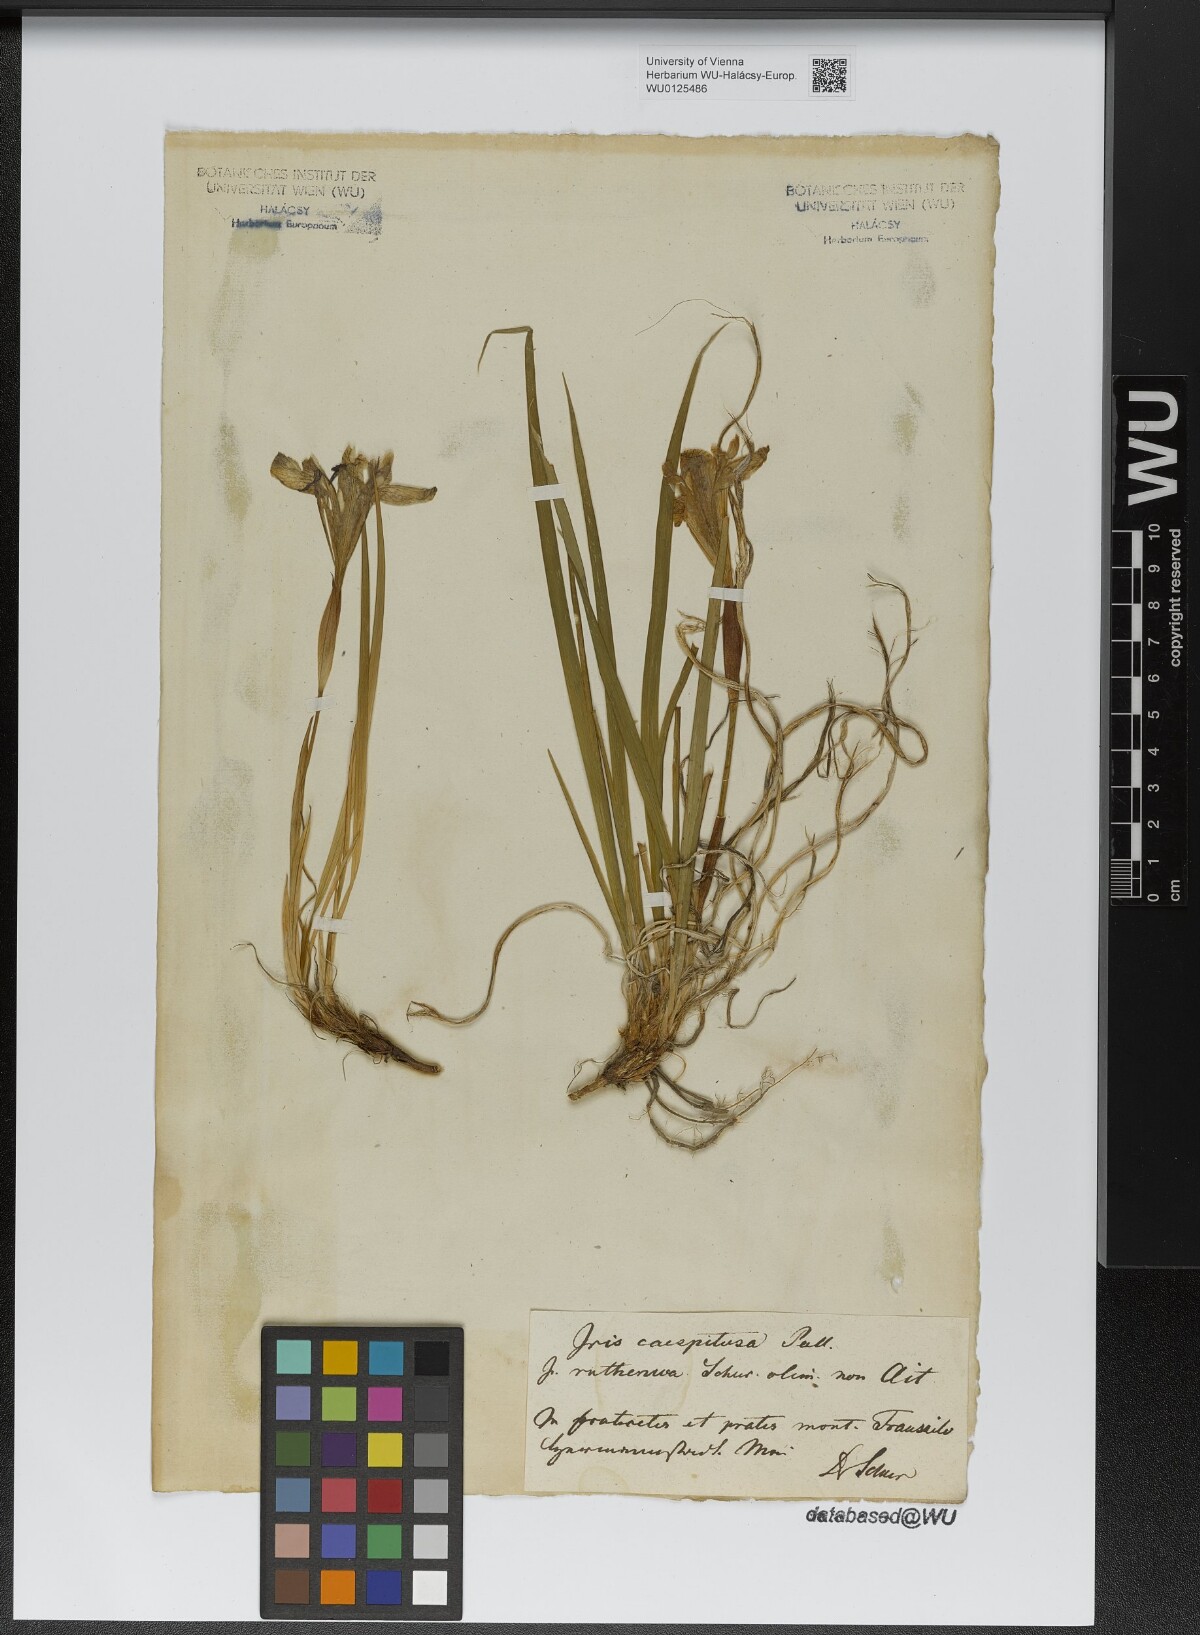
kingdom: Plantae
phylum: Tracheophyta
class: Liliopsida
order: Asparagales
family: Iridaceae
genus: Iris
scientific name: Iris ruthenica
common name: Purple-bract iris
